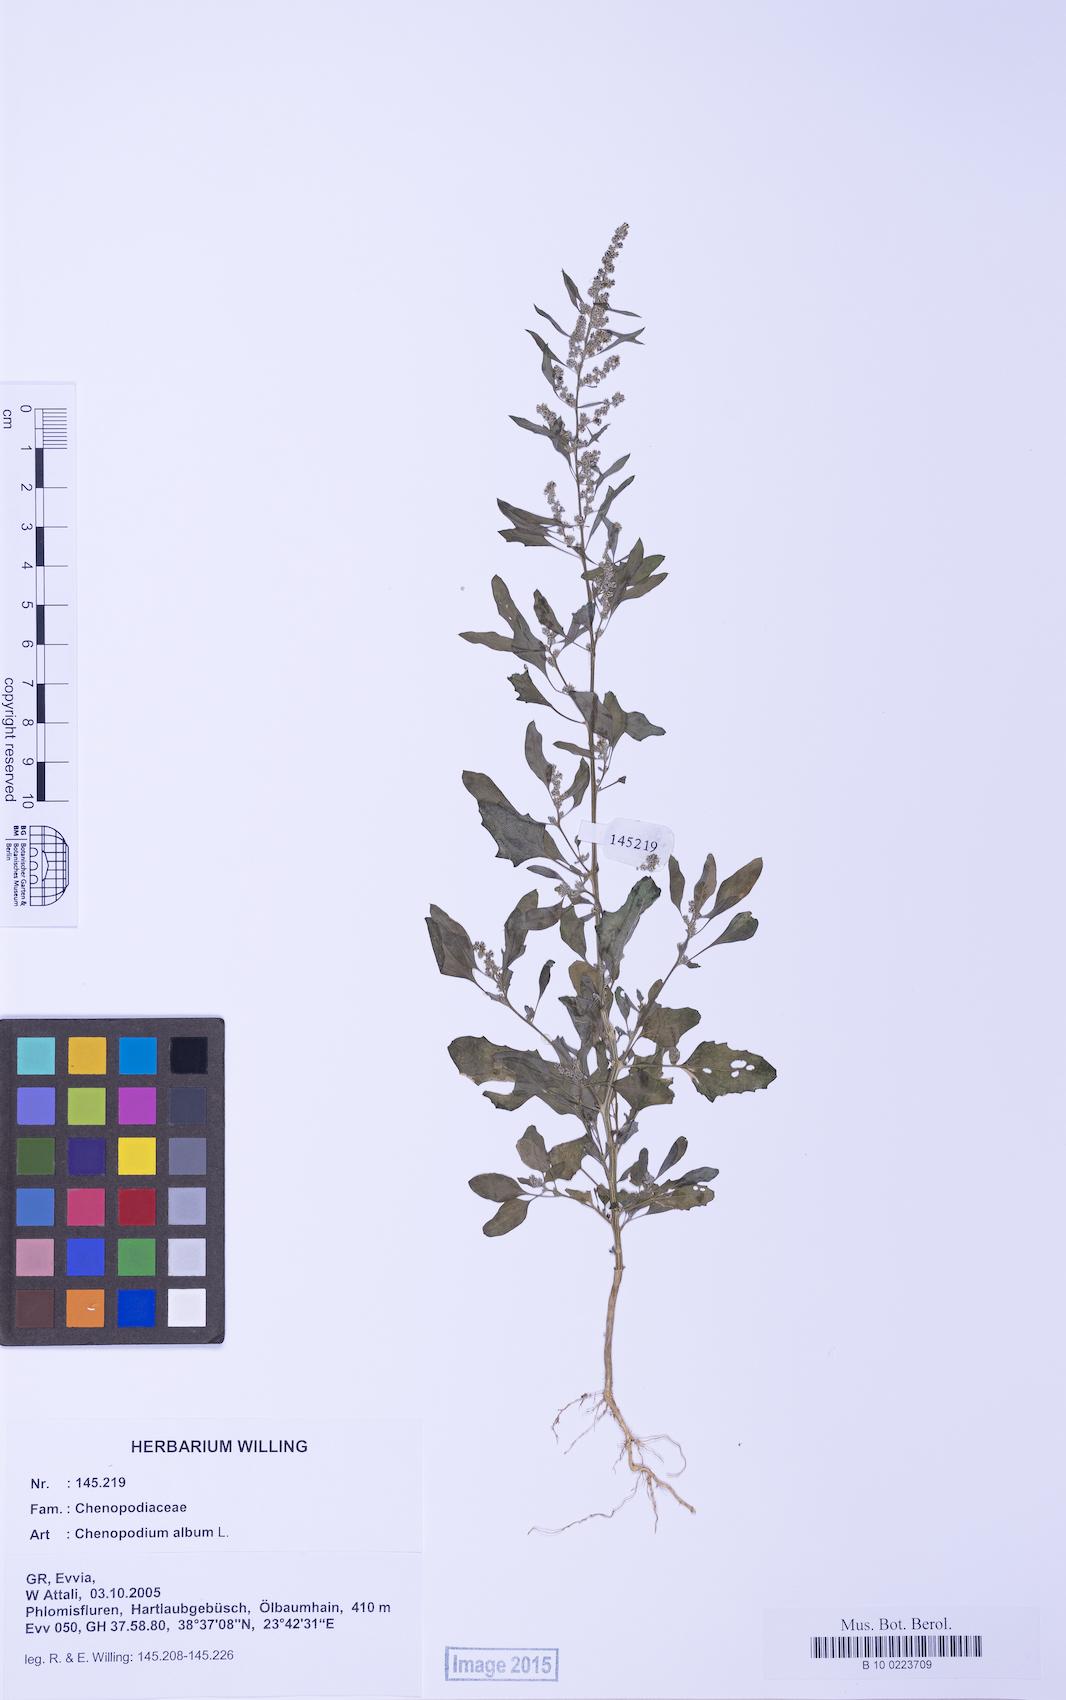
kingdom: Plantae
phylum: Tracheophyta
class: Magnoliopsida
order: Caryophyllales
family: Amaranthaceae
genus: Chenopodium
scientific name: Chenopodium album
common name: Fat-hen
